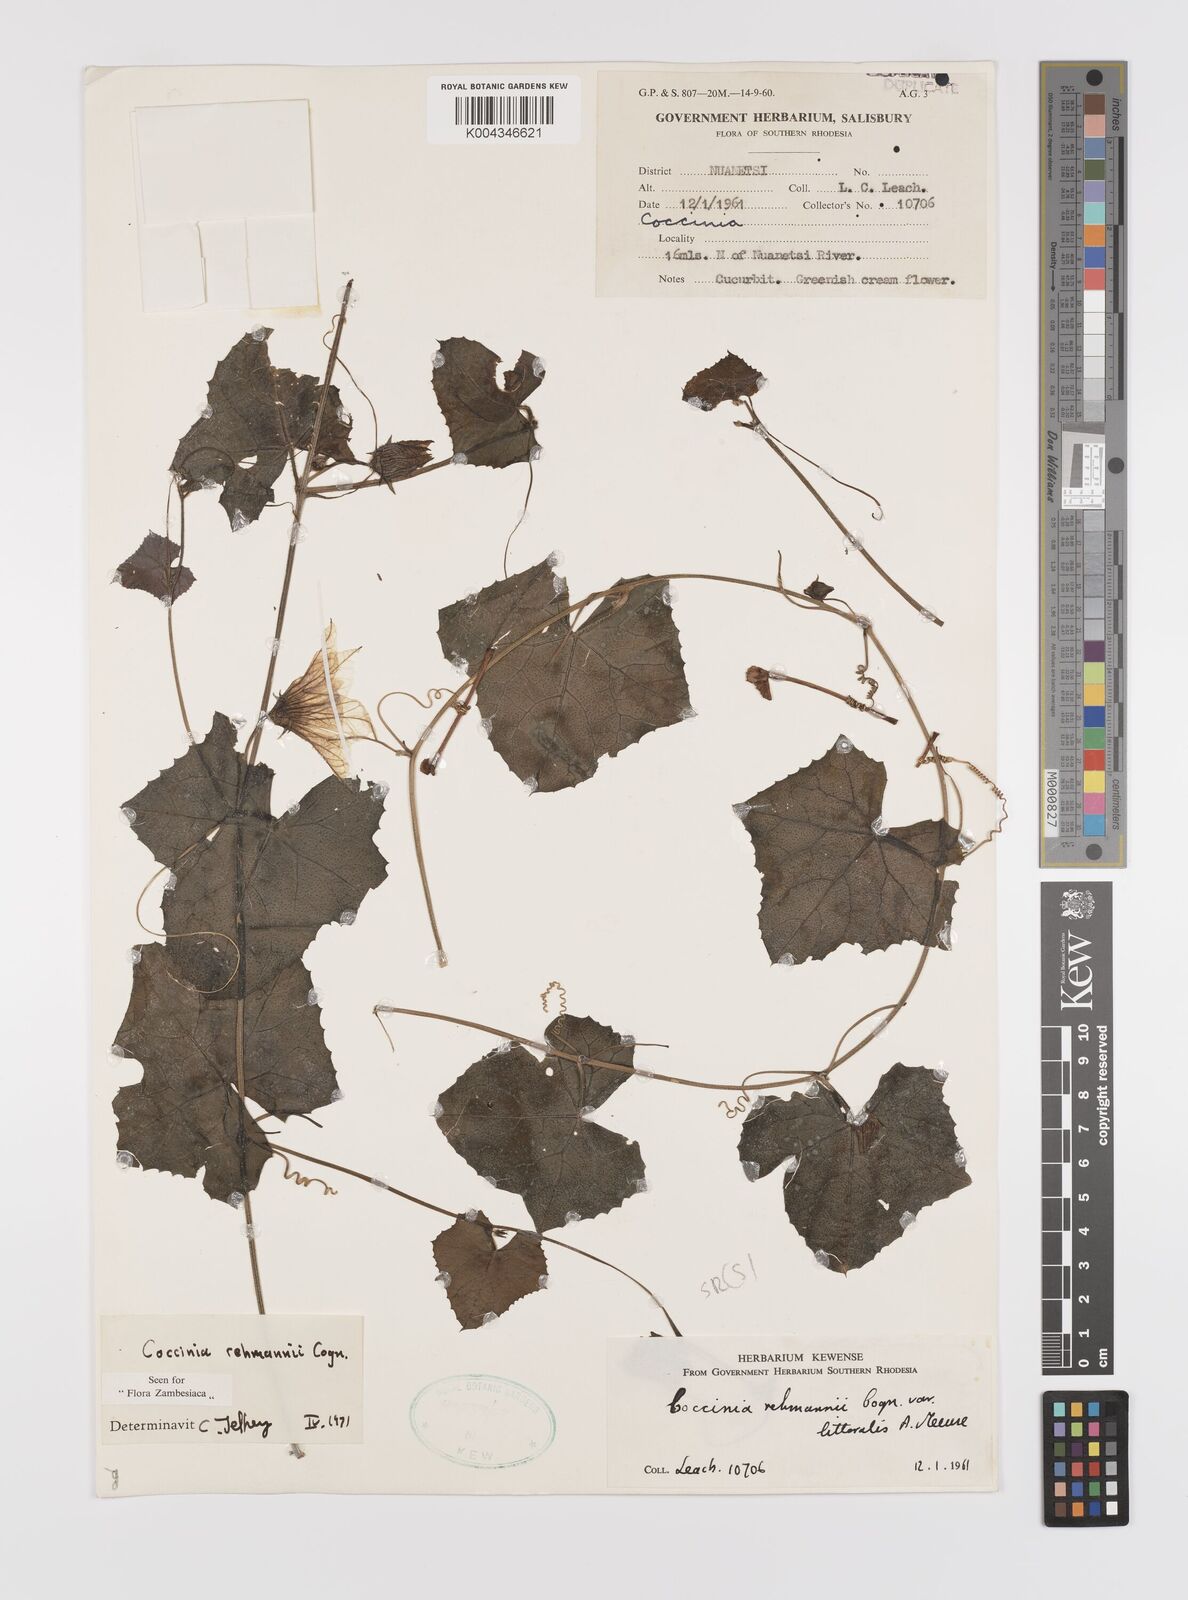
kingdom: Plantae
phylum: Tracheophyta
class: Magnoliopsida
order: Cucurbitales
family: Cucurbitaceae
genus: Coccinia
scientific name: Coccinia rehmannii
